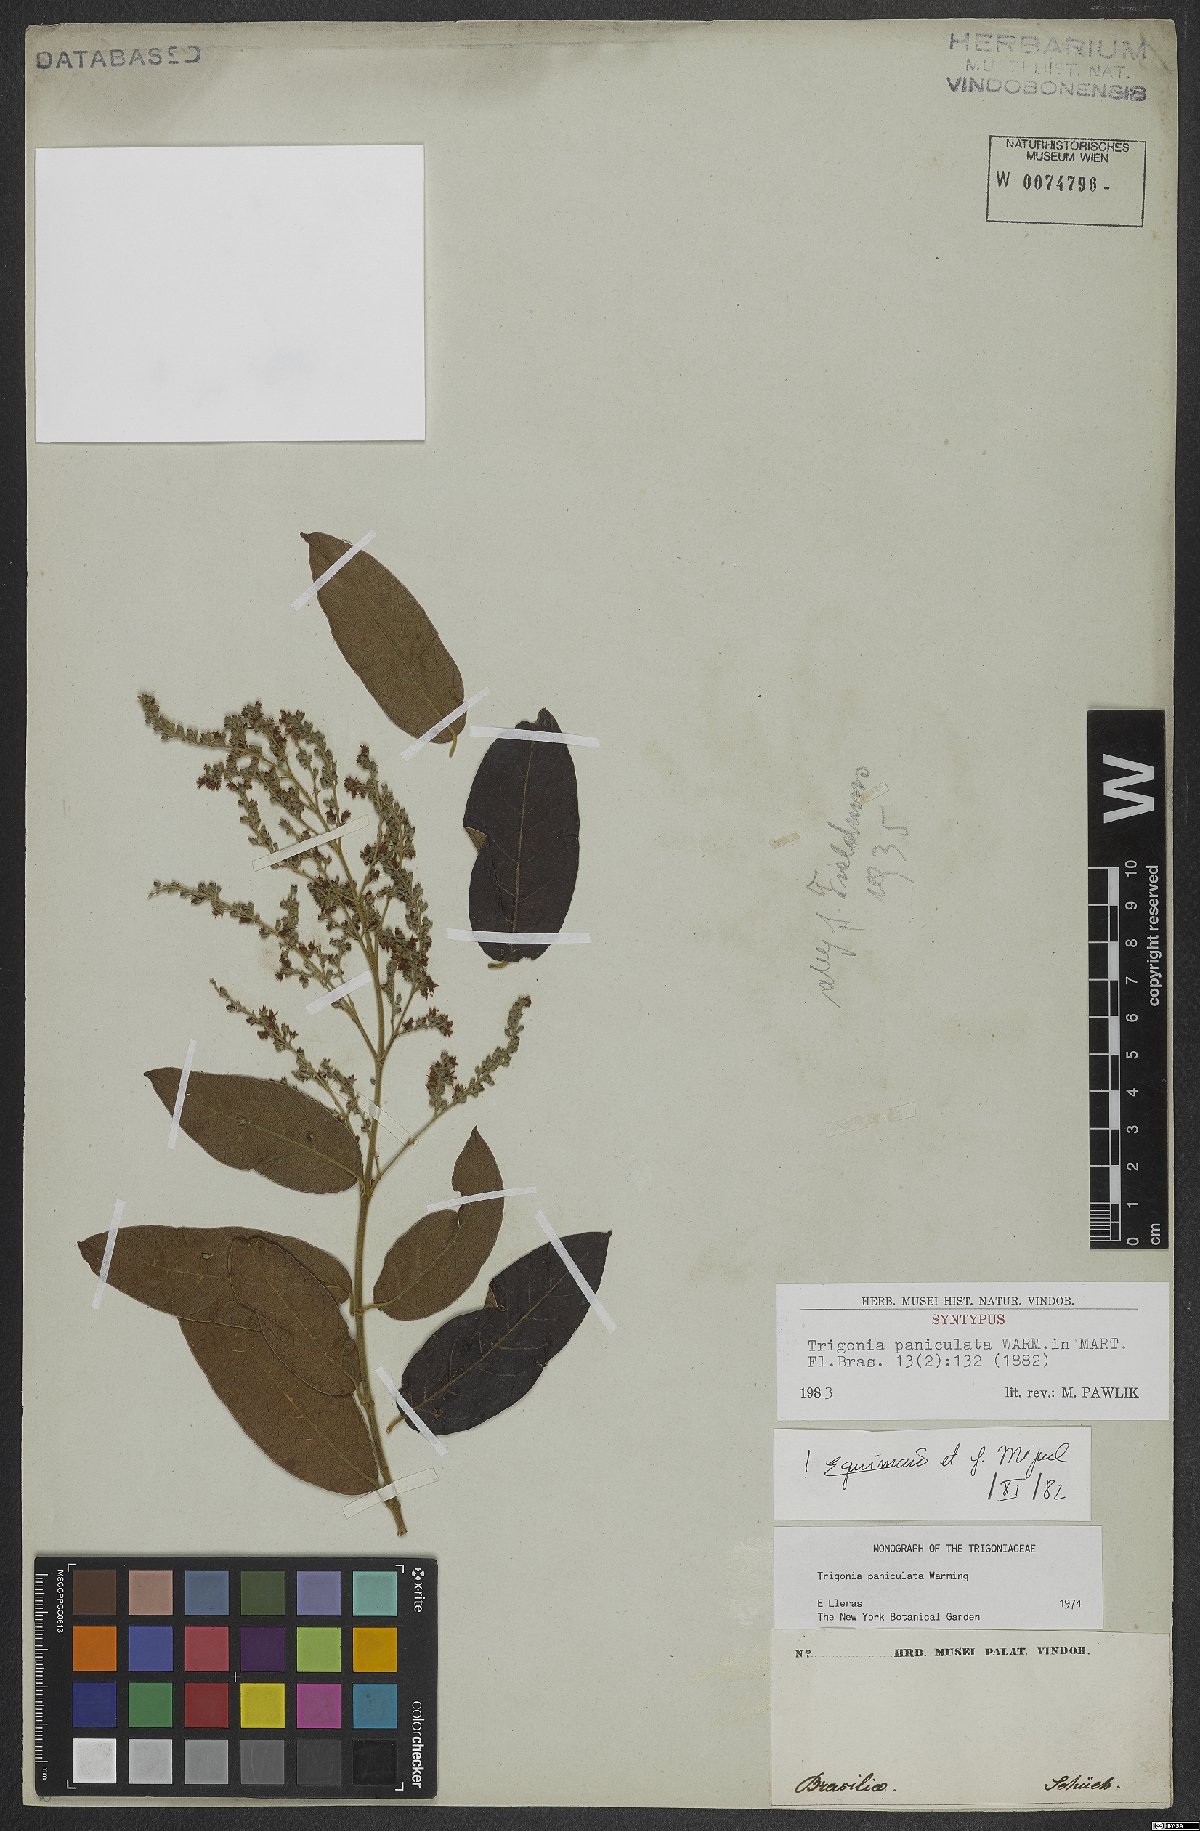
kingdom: Plantae
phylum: Tracheophyta
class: Magnoliopsida
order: Malpighiales
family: Trigoniaceae
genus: Trigonia
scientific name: Trigonia paniculata
